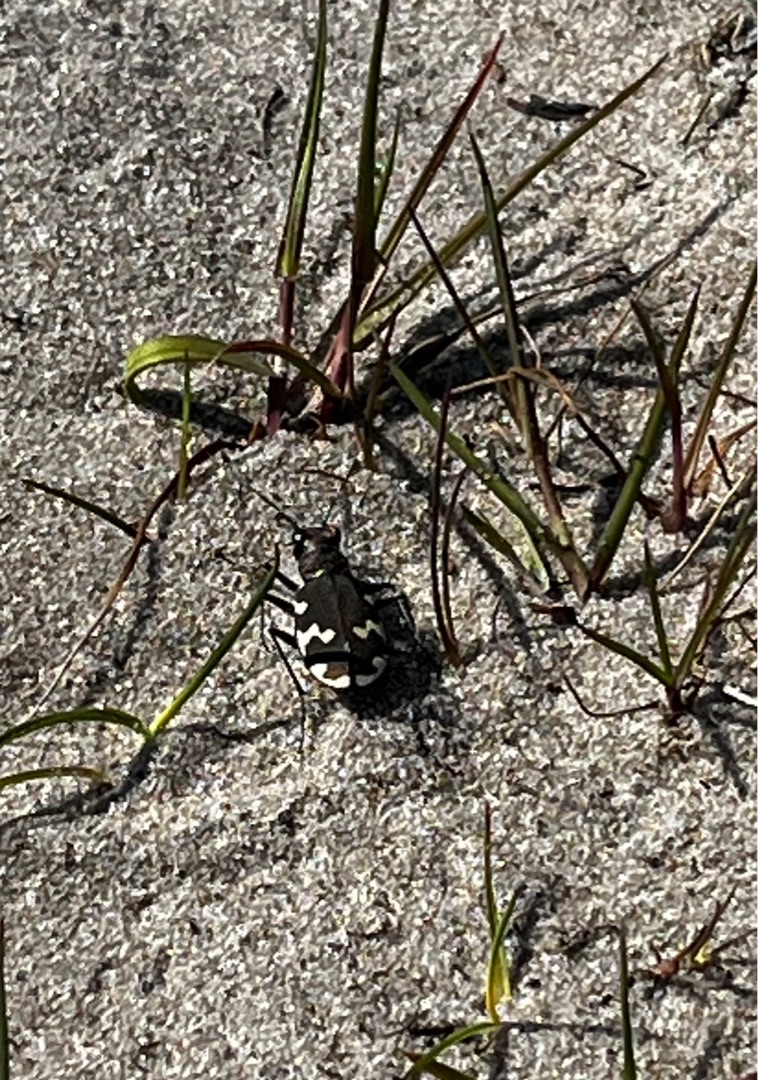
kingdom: Animalia
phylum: Arthropoda
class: Insecta
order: Coleoptera
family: Carabidae
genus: Cicindela
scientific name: Cicindela hybrida
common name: Brun sandspringer
